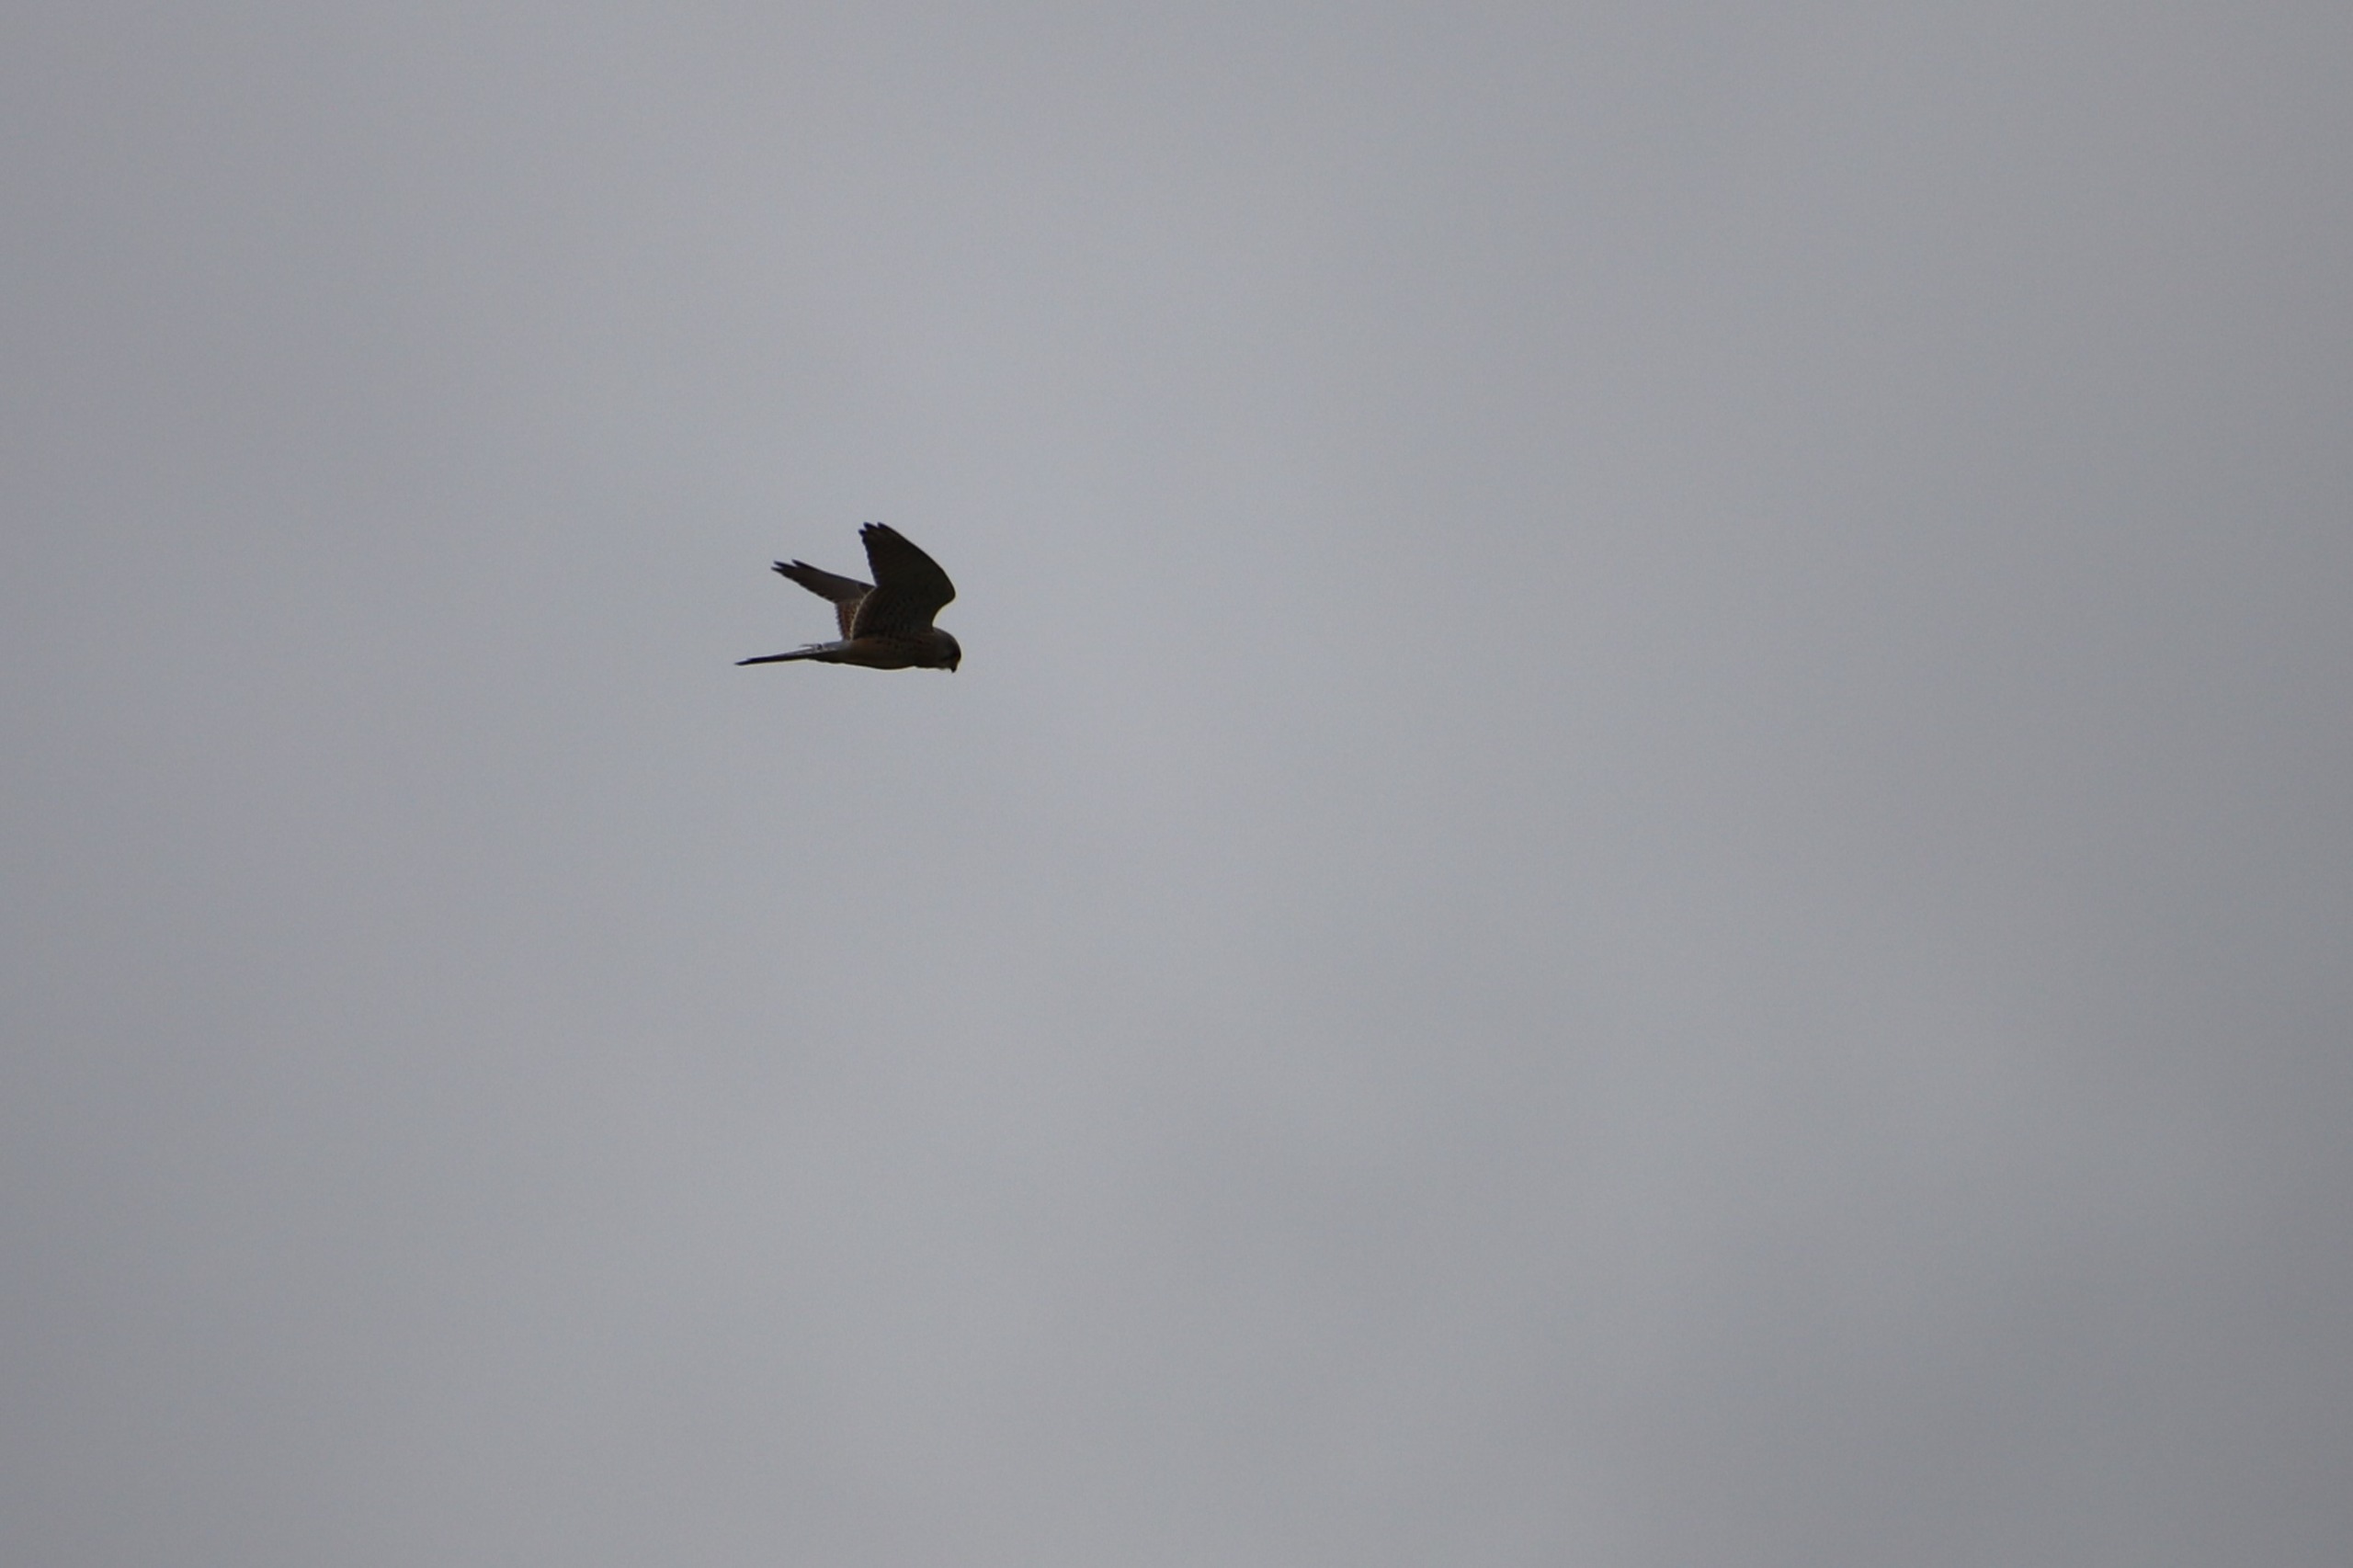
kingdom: Animalia
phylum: Chordata
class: Aves
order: Falconiformes
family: Falconidae
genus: Falco
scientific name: Falco tinnunculus
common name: Tårnfalk
